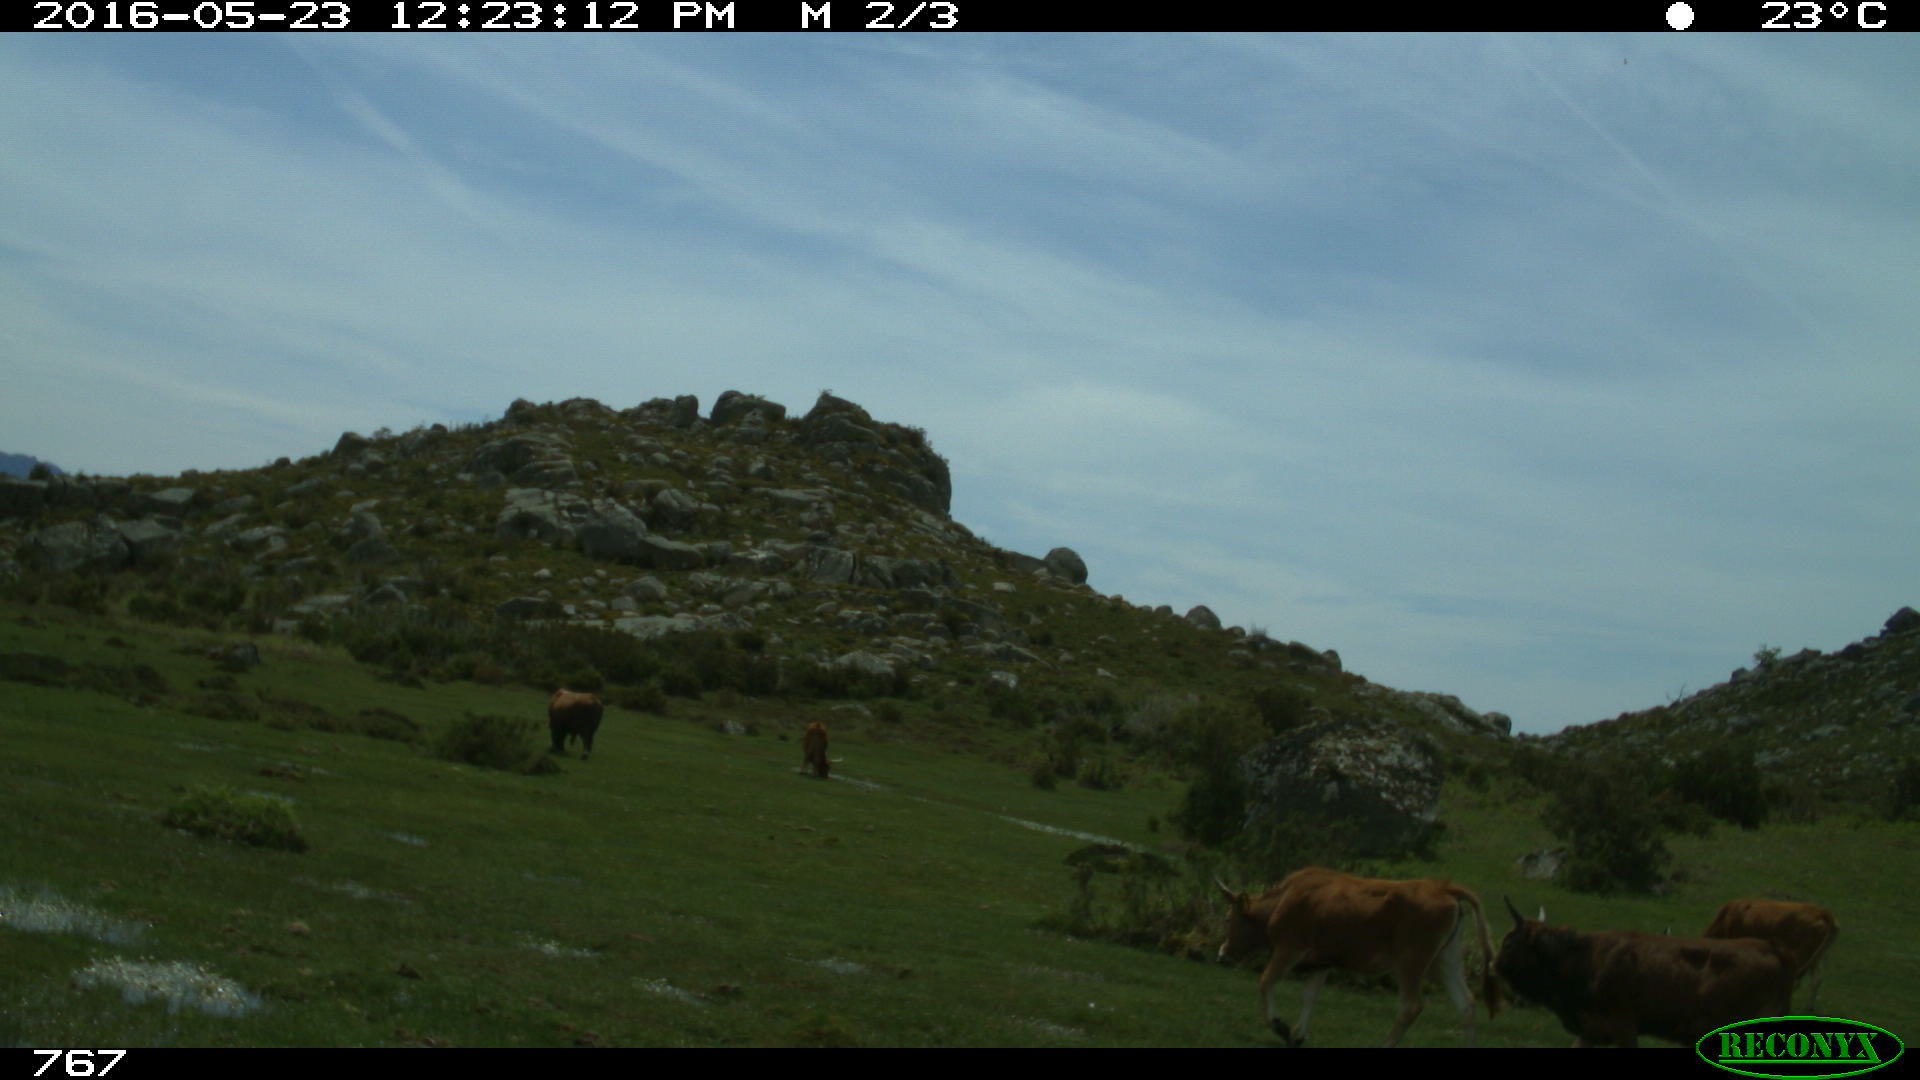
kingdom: Animalia
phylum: Chordata
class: Mammalia
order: Artiodactyla
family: Bovidae
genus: Bos
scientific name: Bos taurus
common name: Domesticated cattle
